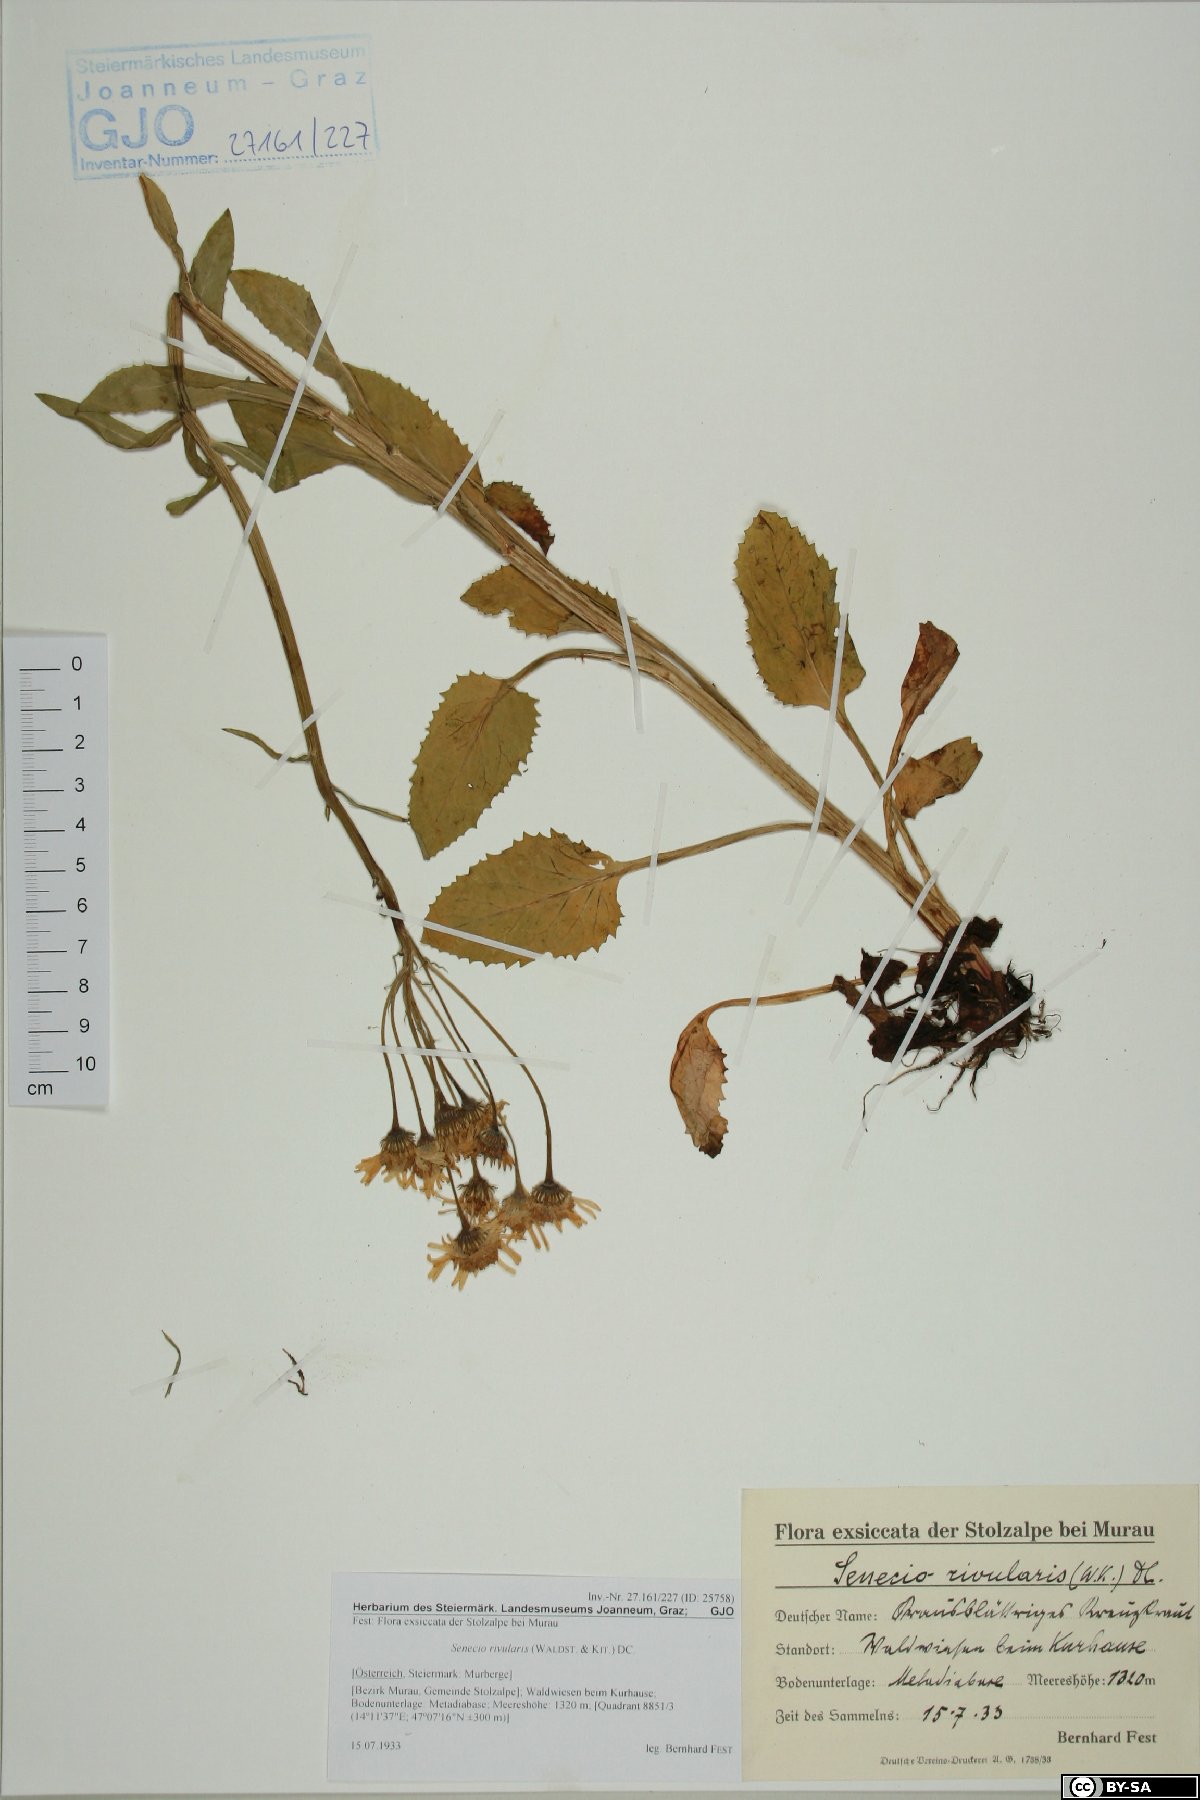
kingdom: Plantae
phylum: Tracheophyta
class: Magnoliopsida
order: Asterales
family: Asteraceae
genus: Tephroseris
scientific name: Tephroseris crispa
